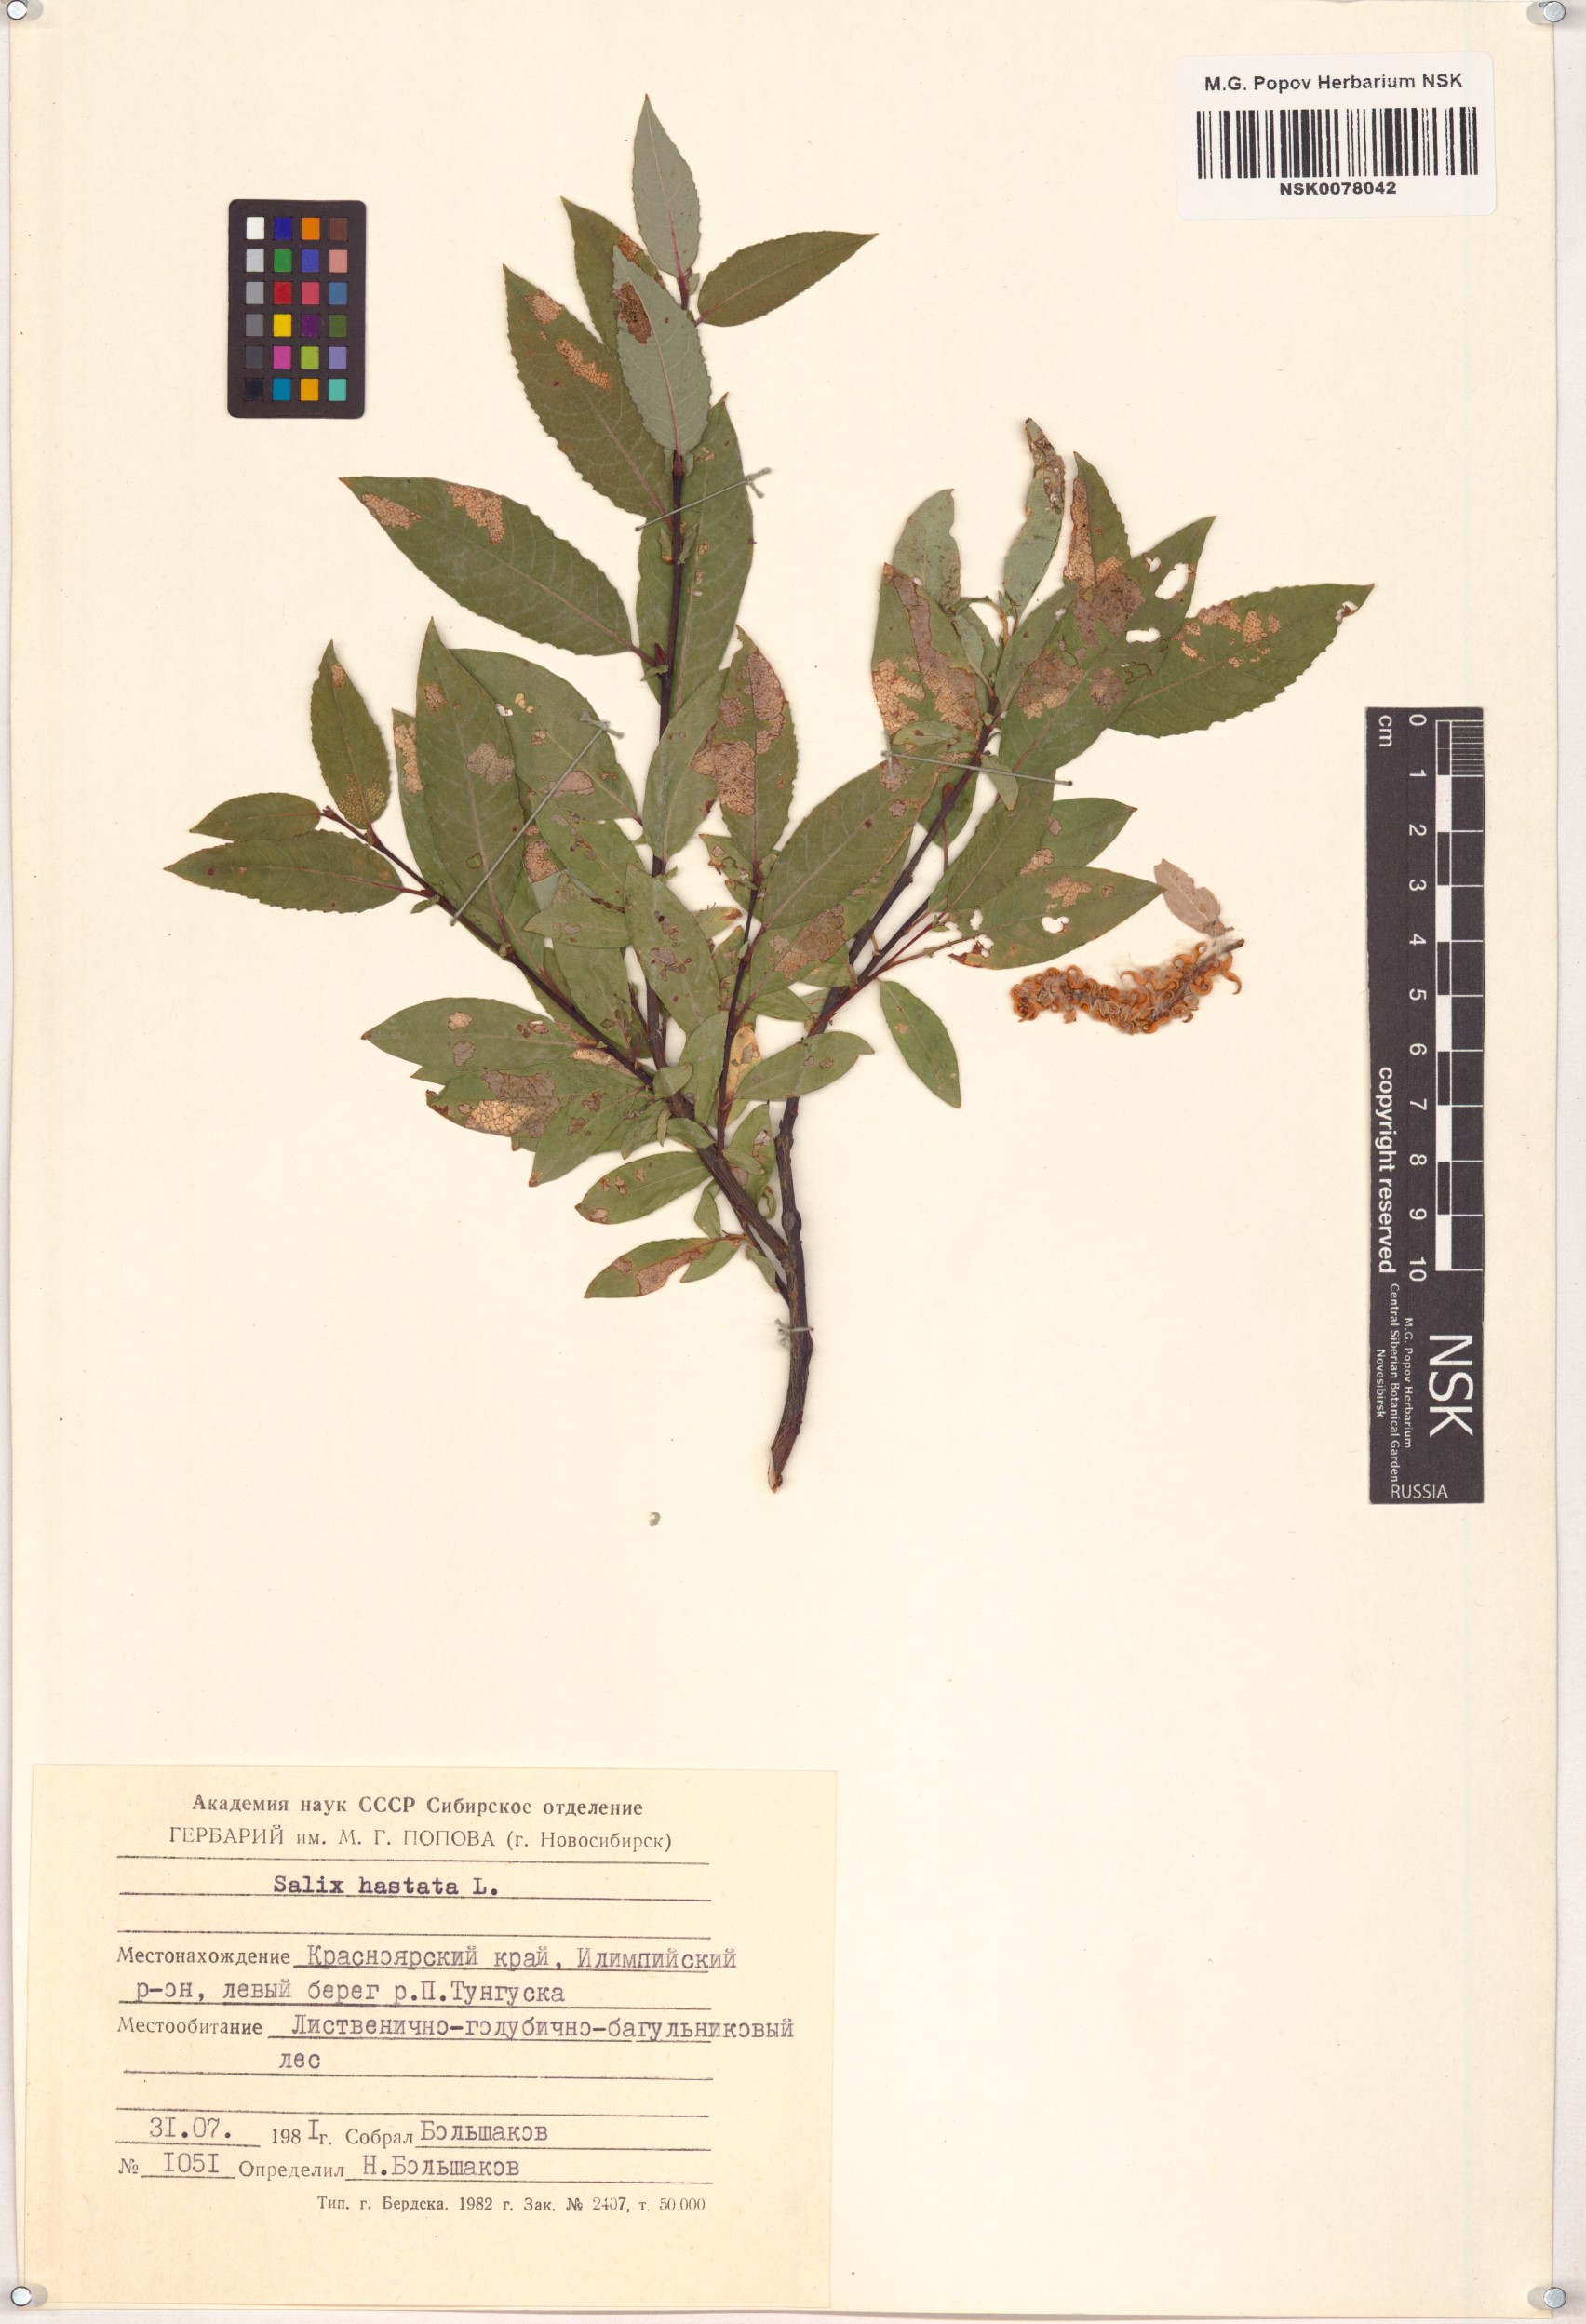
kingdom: Plantae
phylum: Tracheophyta
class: Magnoliopsida
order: Malpighiales
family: Salicaceae
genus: Salix
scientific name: Salix hastata
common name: Halberd willow
